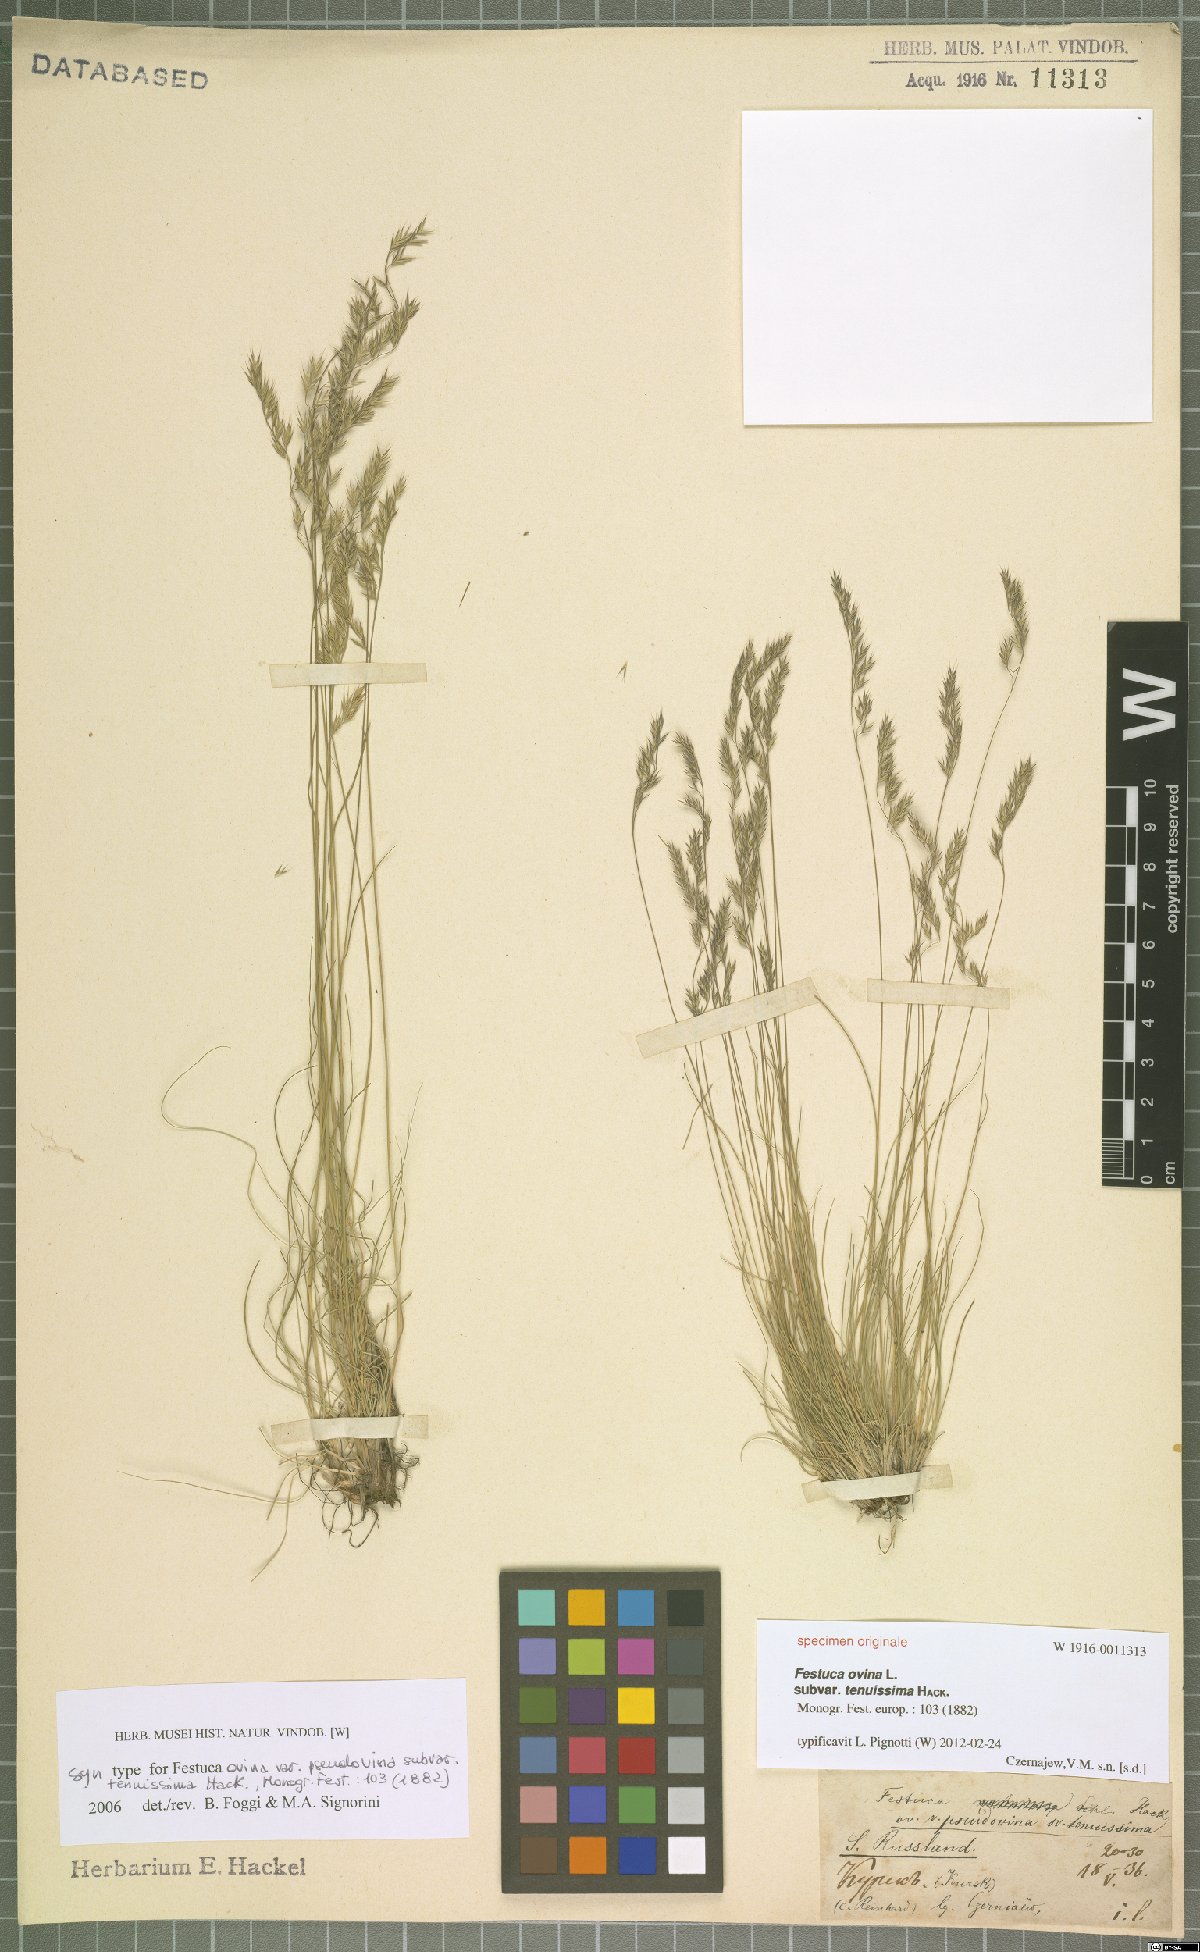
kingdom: Plantae
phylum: Tracheophyta
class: Liliopsida
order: Poales
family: Poaceae
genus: Festuca
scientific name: Festuca ovina
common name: Sheep fescue
